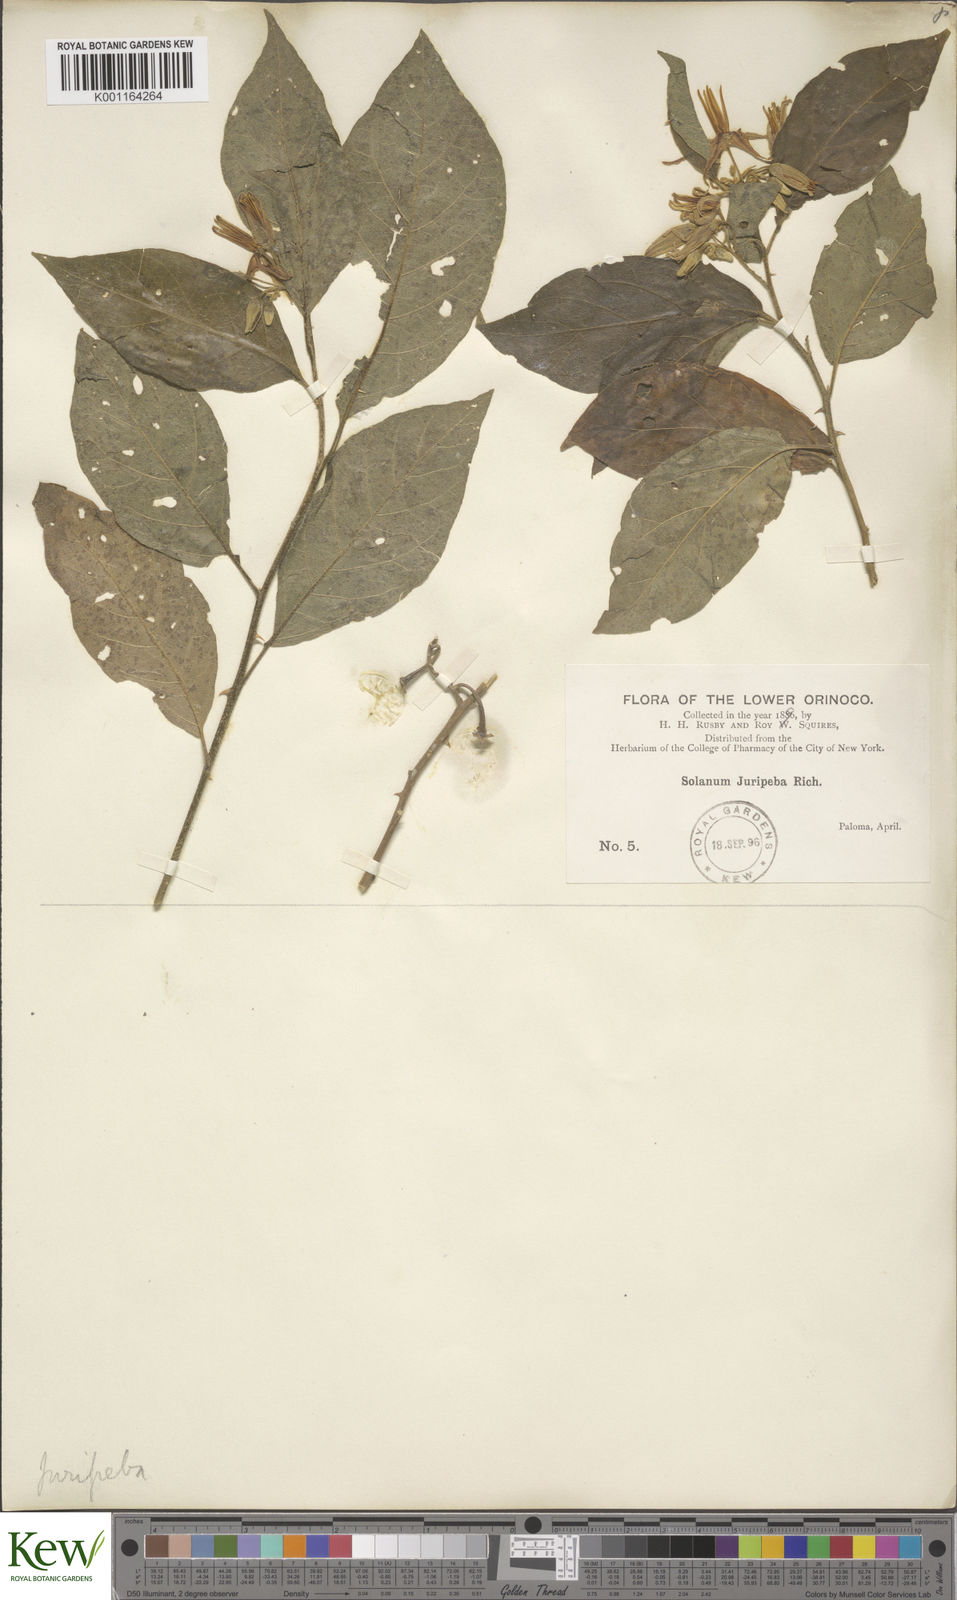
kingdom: Plantae
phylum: Tracheophyta
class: Magnoliopsida
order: Solanales
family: Solanaceae
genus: Solanum
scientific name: Solanum subinerme
